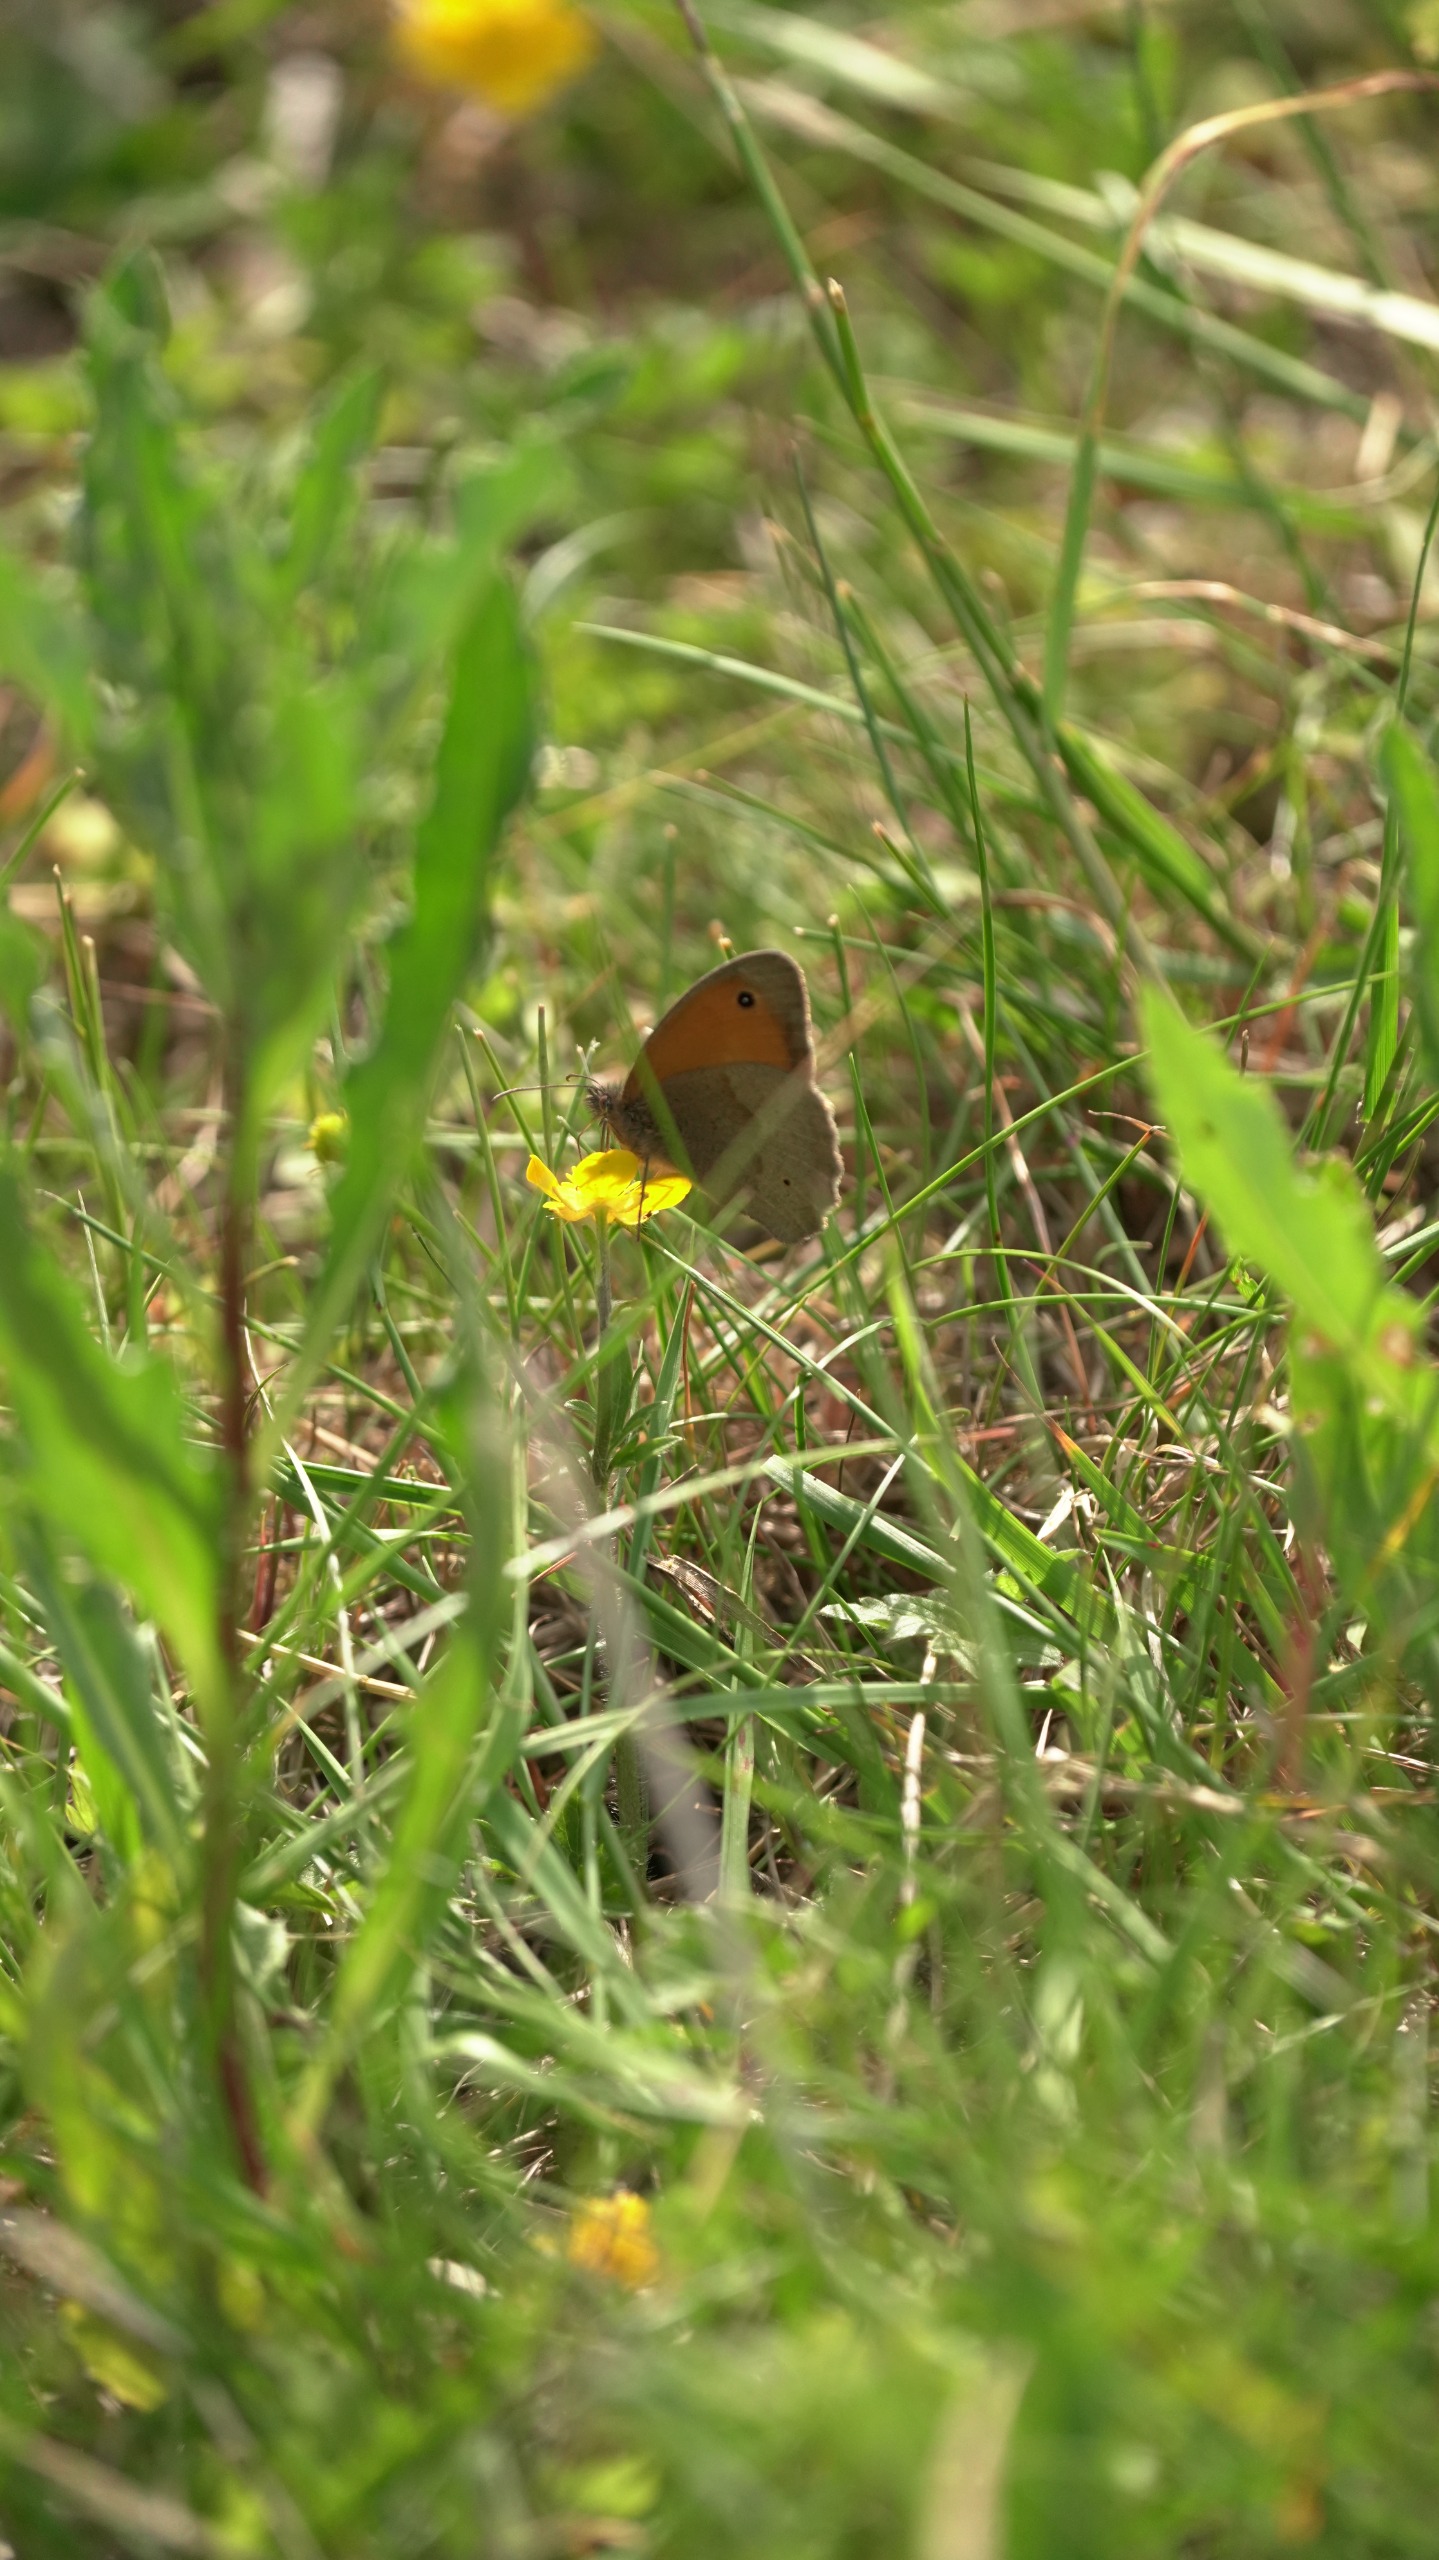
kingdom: Animalia
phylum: Arthropoda
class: Insecta
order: Lepidoptera
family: Nymphalidae
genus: Maniola
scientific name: Maniola jurtina
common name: Græsrandøje
